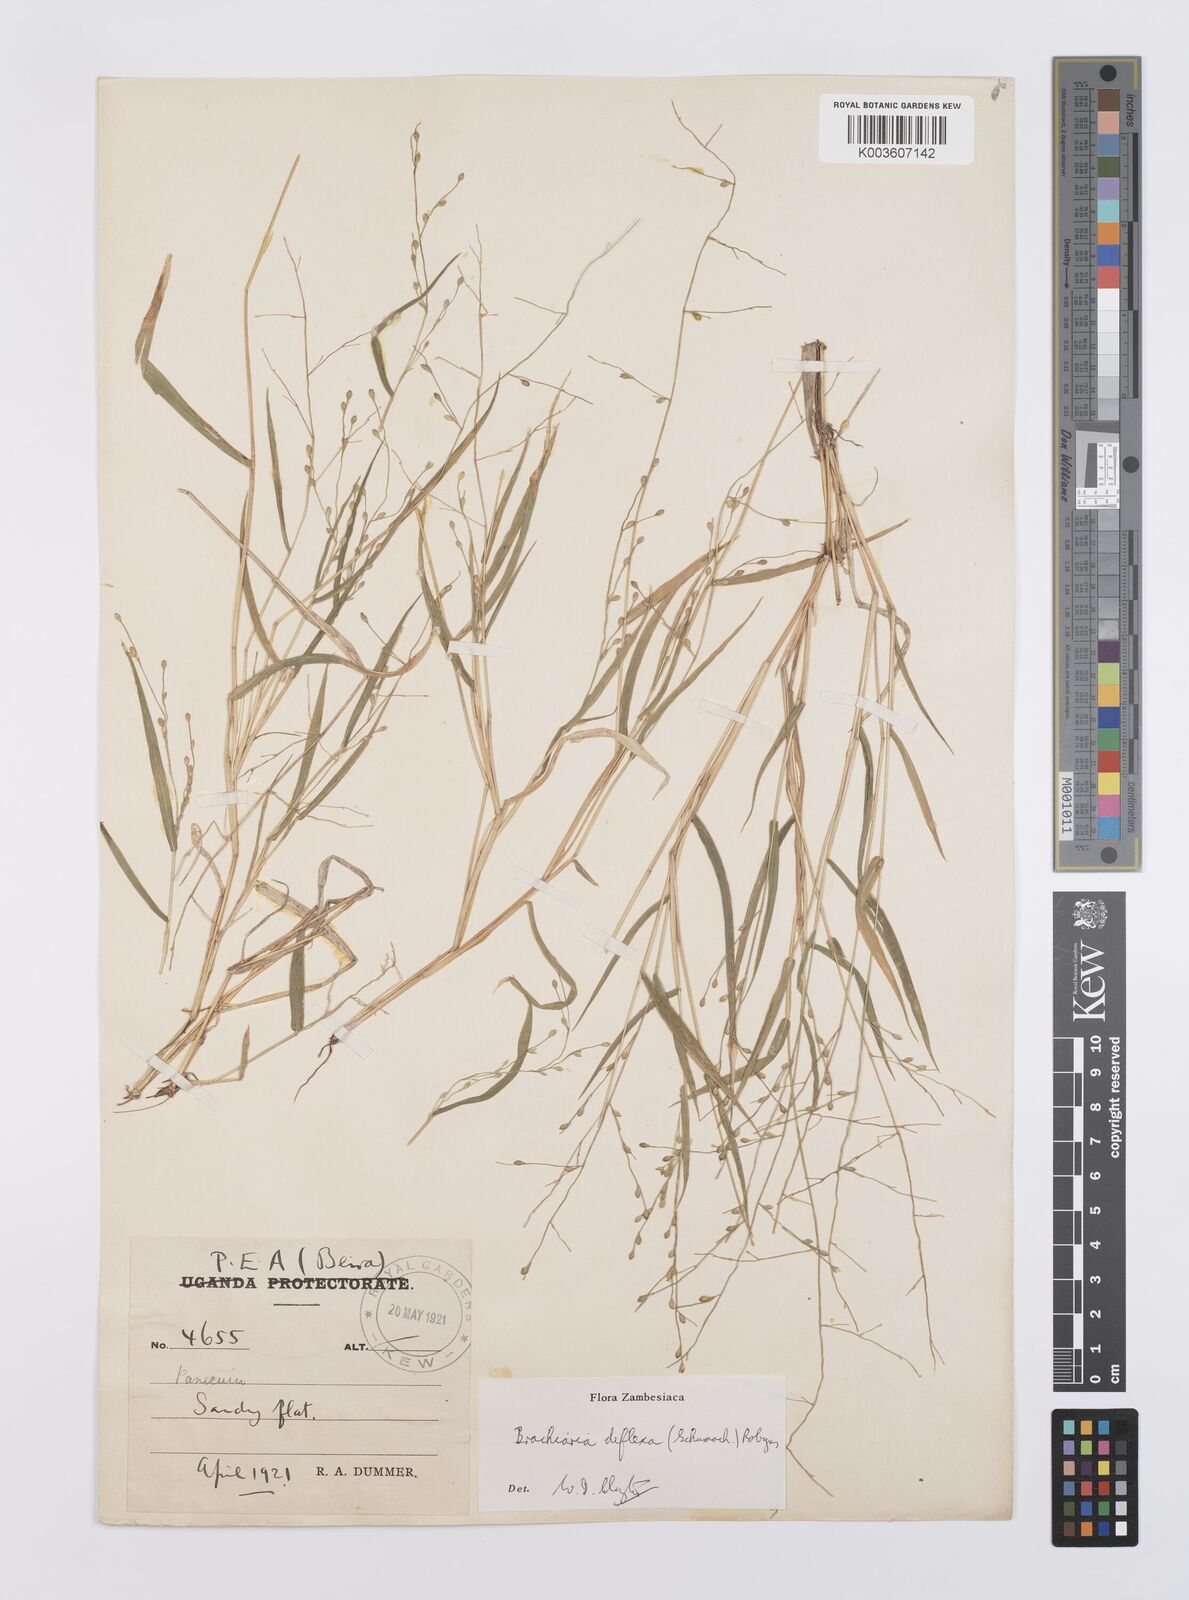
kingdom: Plantae
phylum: Tracheophyta
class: Liliopsida
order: Poales
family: Poaceae
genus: Urochloa
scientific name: Urochloa deflexa
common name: Guinea millet
